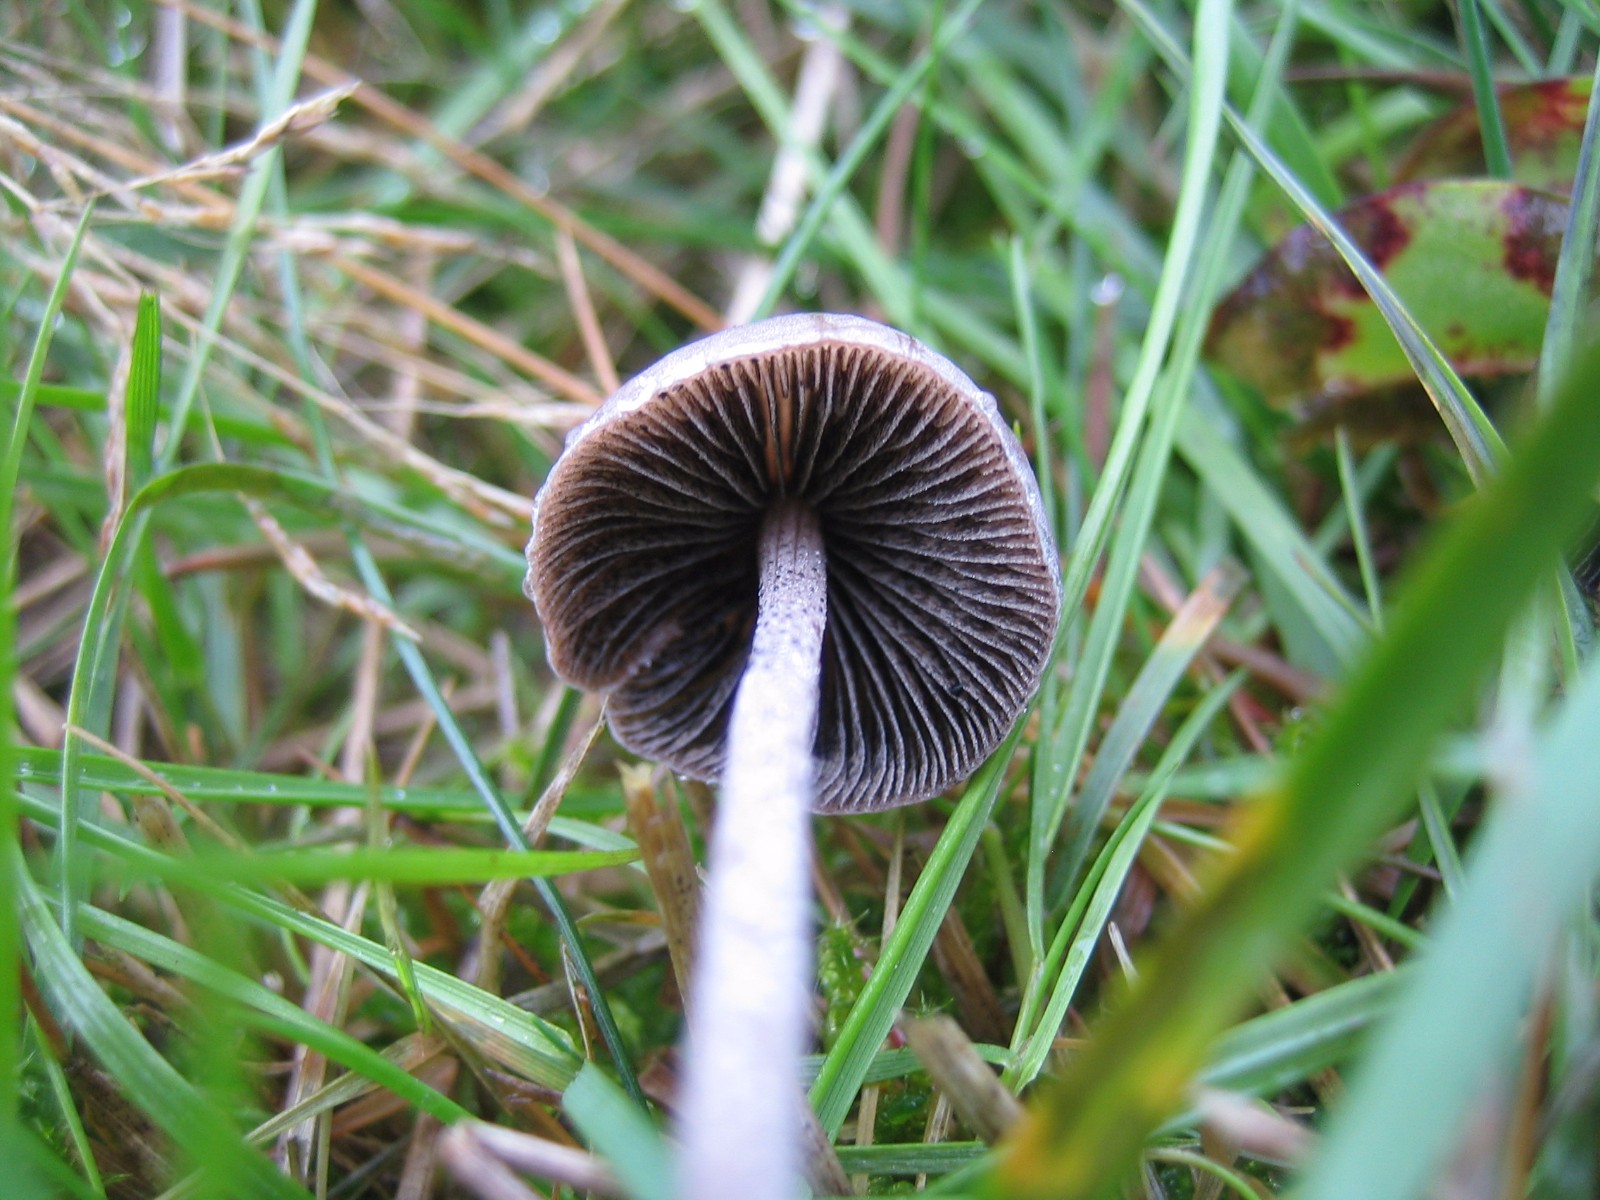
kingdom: Fungi
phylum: Basidiomycota
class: Agaricomycetes
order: Agaricales
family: Bolbitiaceae
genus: Panaeolus
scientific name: Panaeolus papilionaceus
